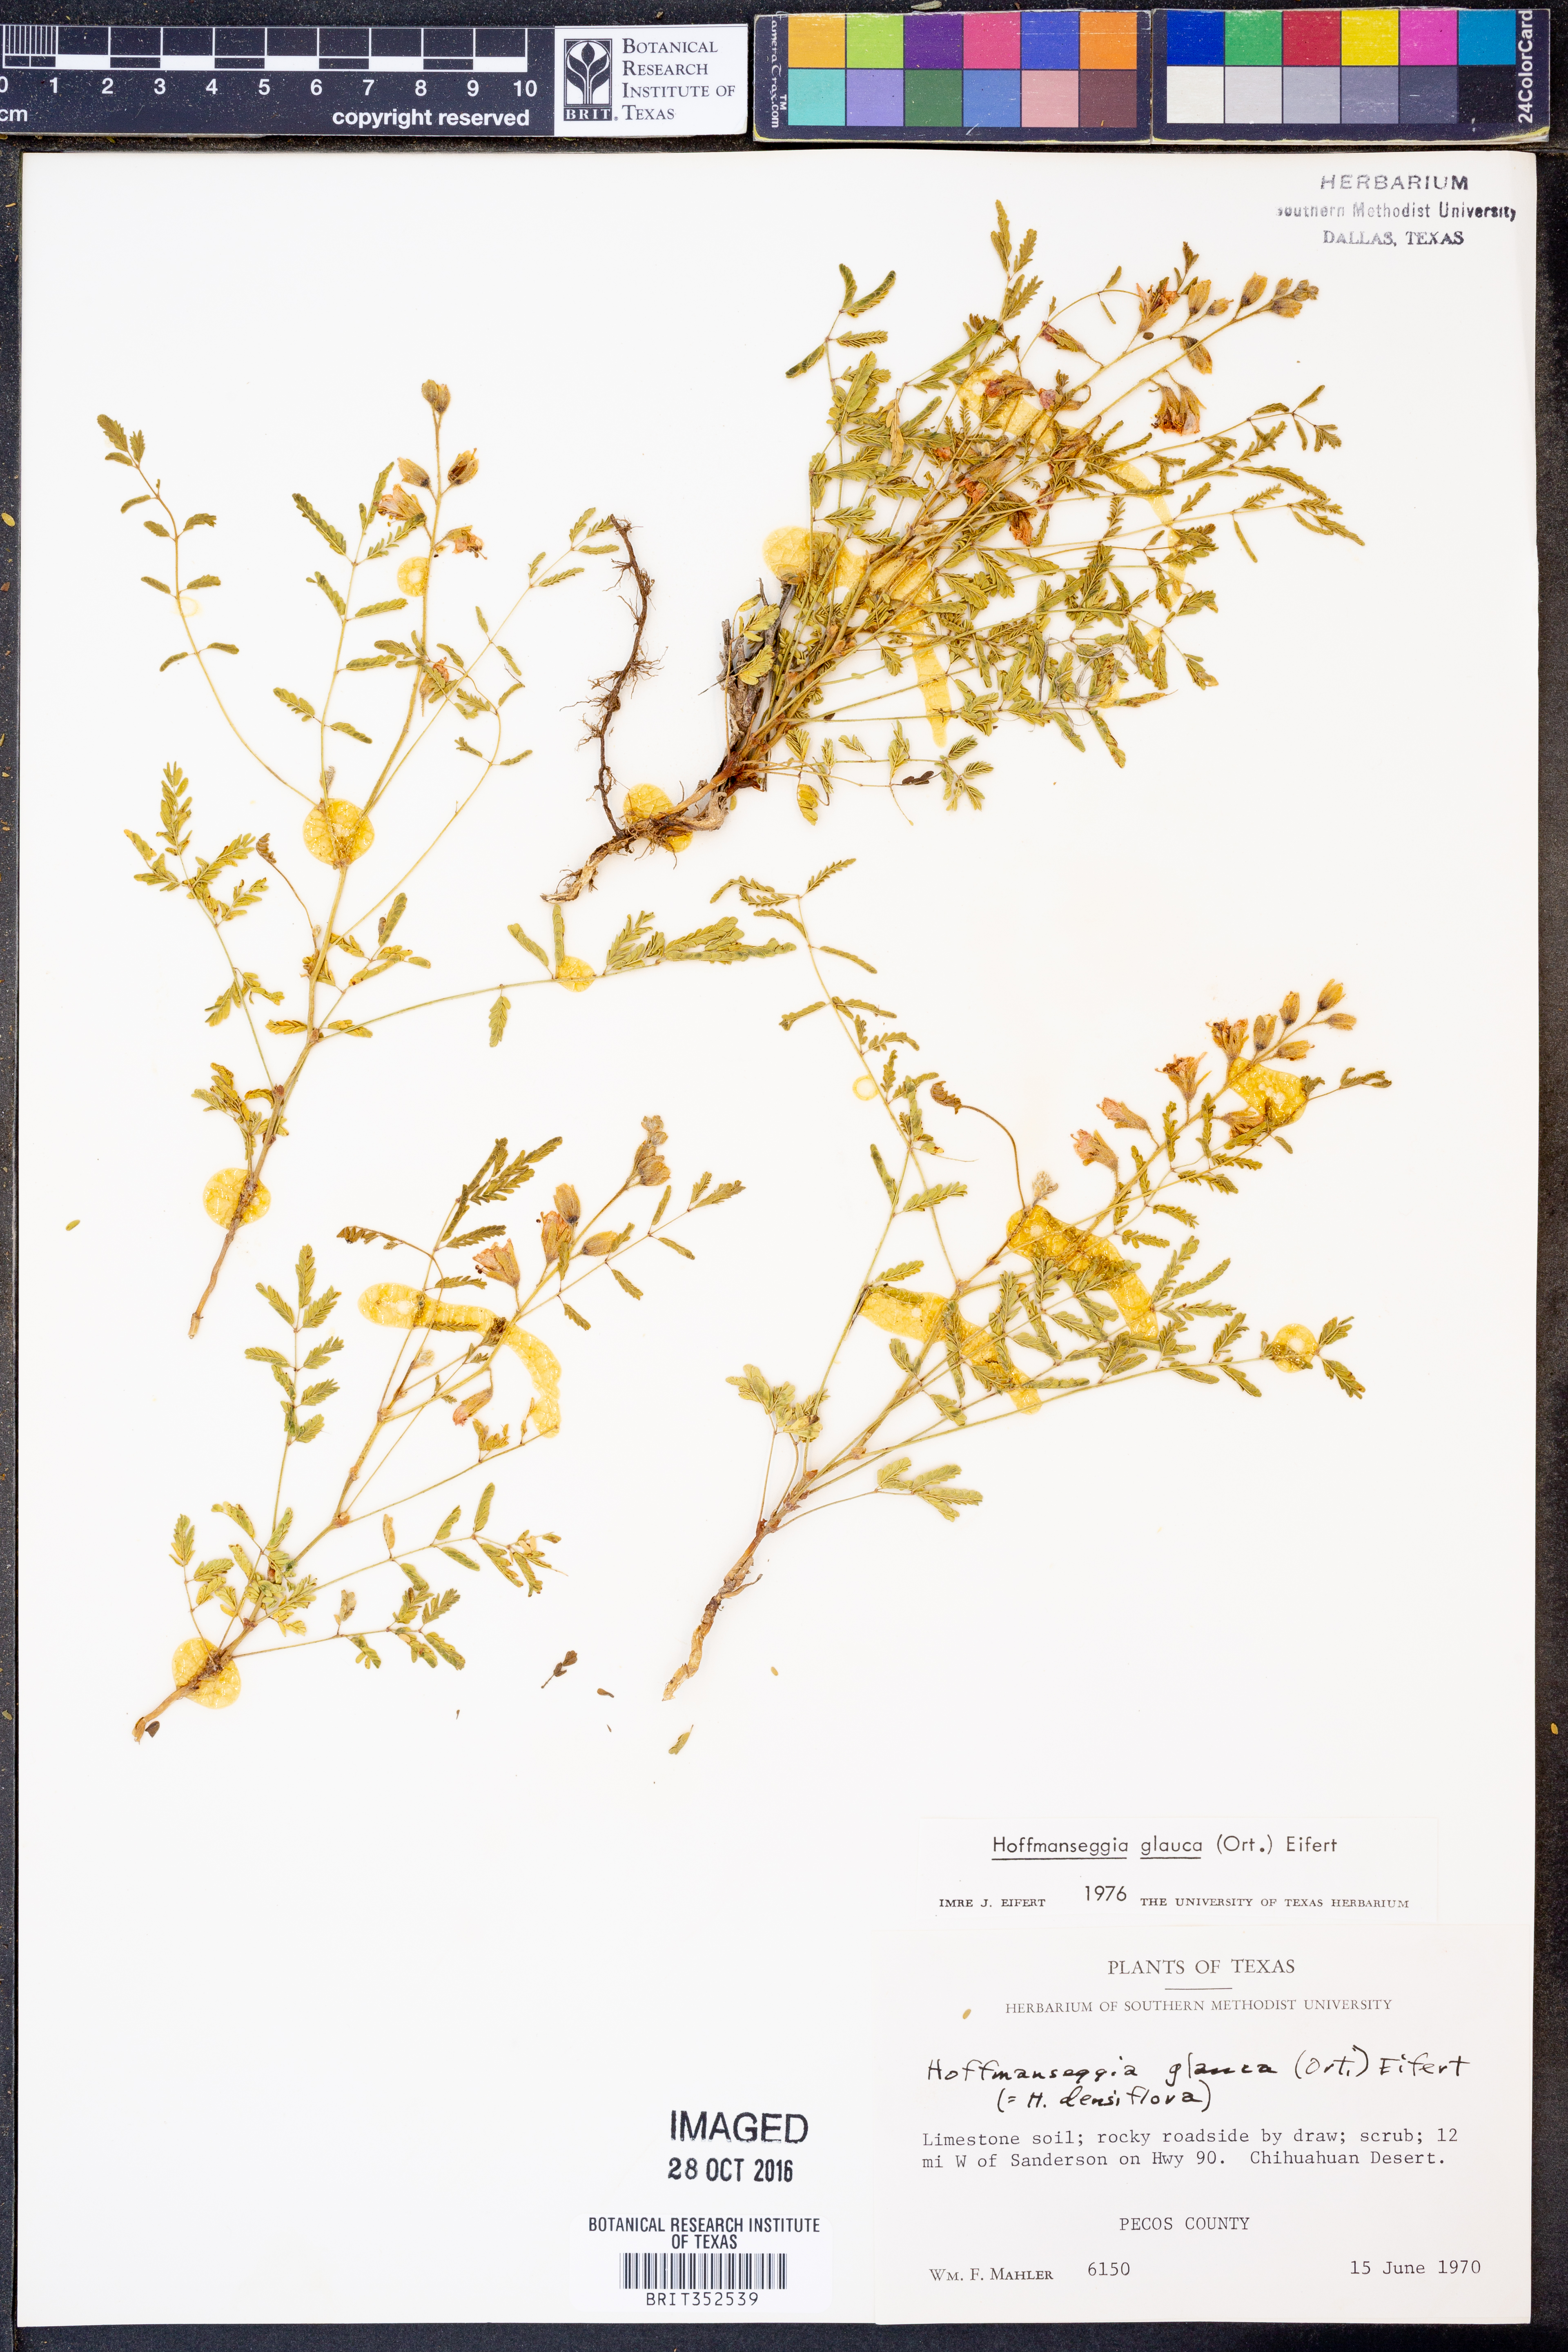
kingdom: Plantae
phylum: Tracheophyta
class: Magnoliopsida
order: Fabales
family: Fabaceae
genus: Hoffmannseggia
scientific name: Hoffmannseggia glauca
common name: Pignut
